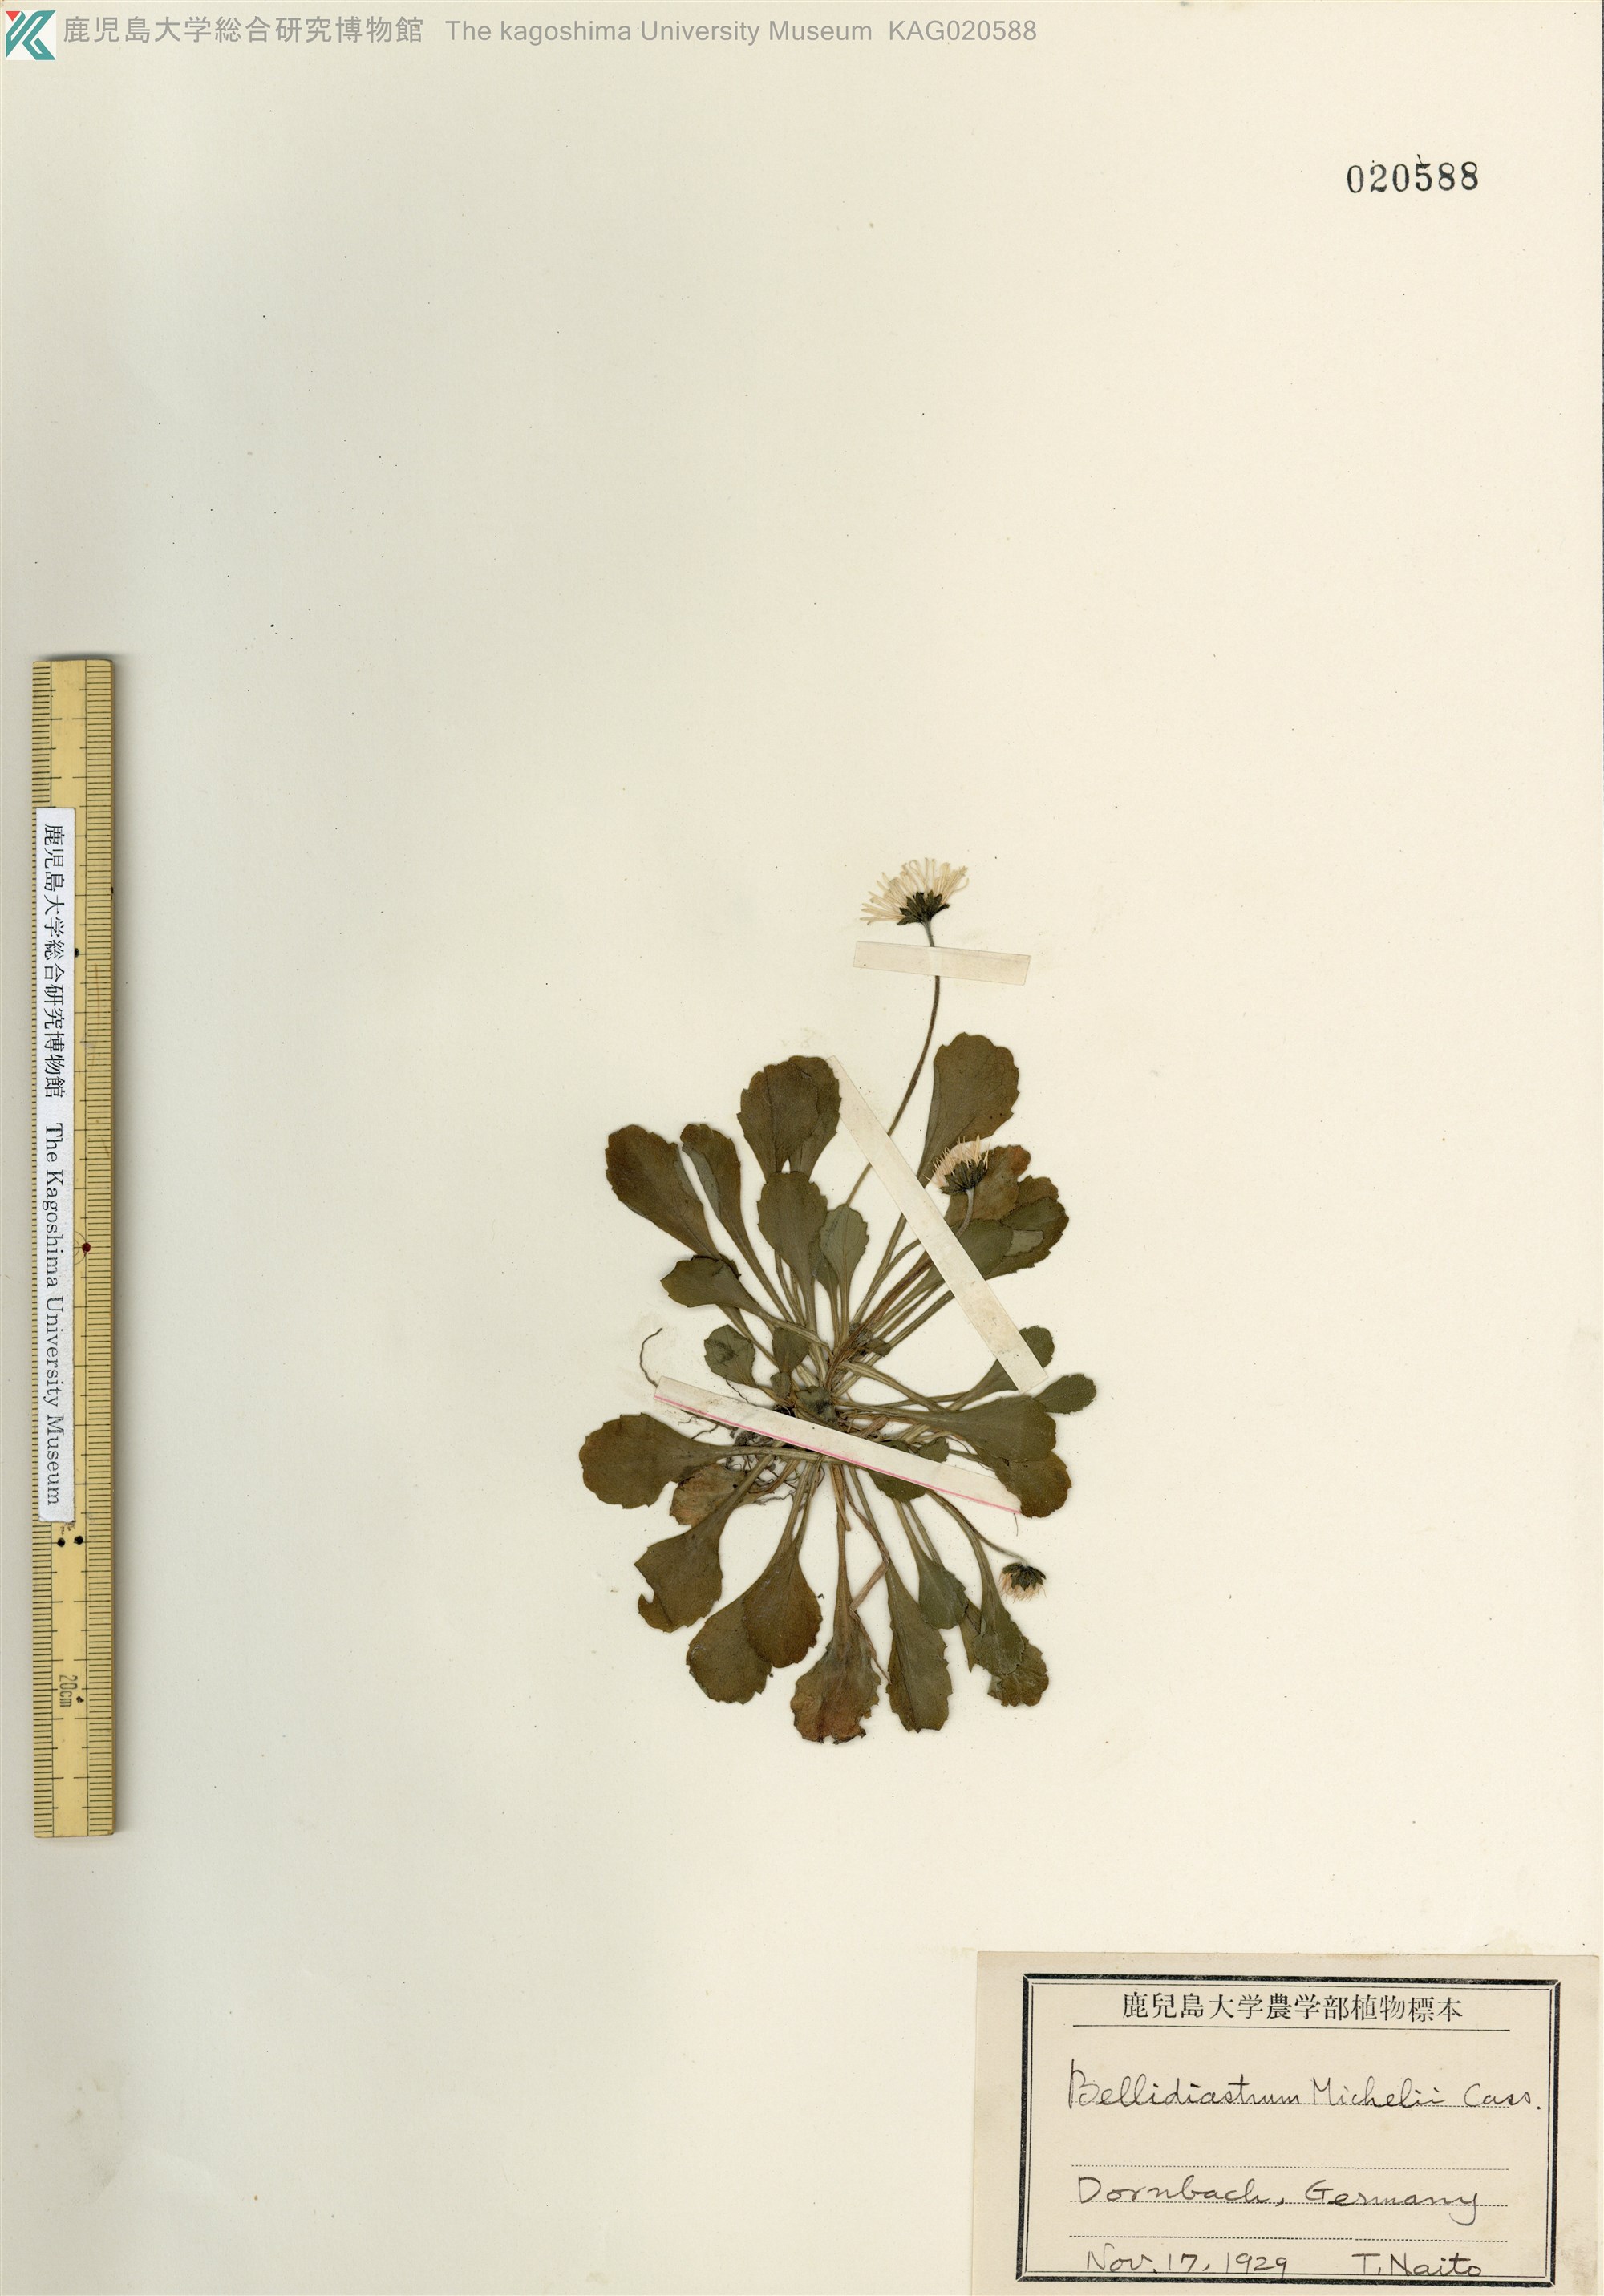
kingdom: Plantae
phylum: Tracheophyta
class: Magnoliopsida
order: Asterales
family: Asteraceae
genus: Bellis
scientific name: Bellis perennis
